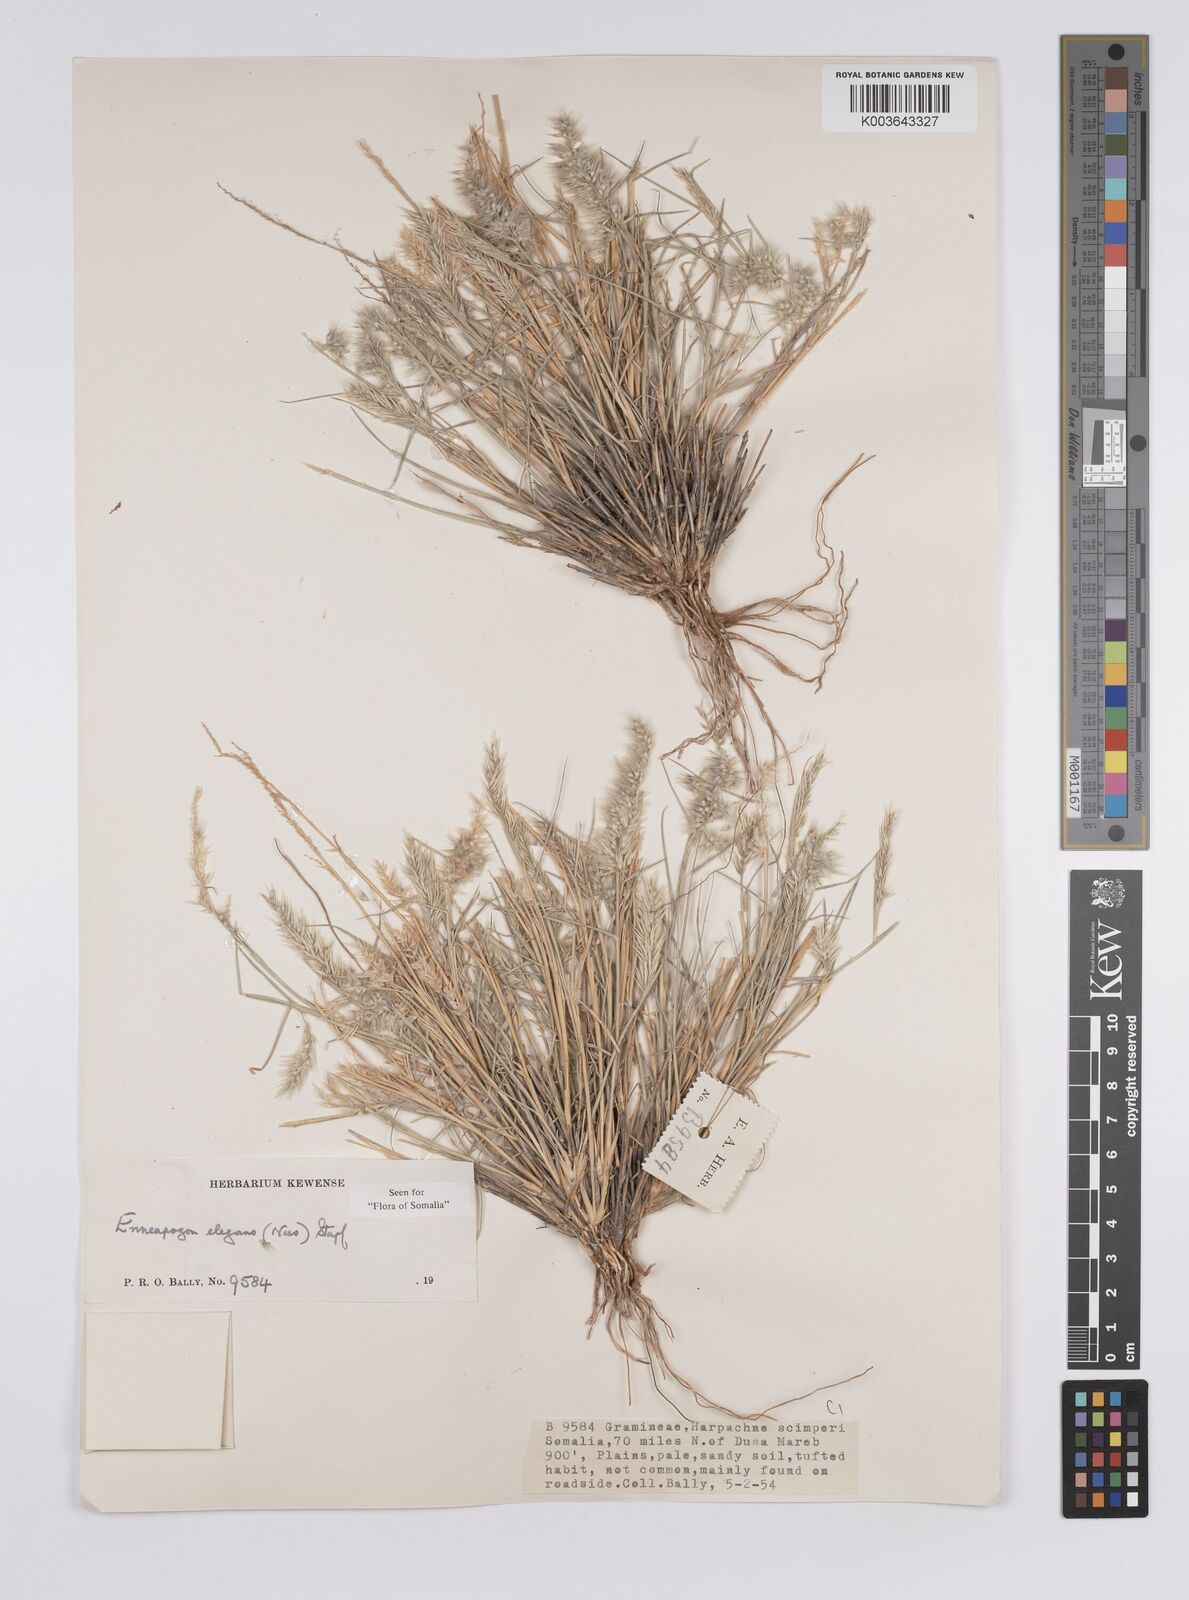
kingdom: Plantae
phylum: Tracheophyta
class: Liliopsida
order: Poales
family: Poaceae
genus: Enneapogon
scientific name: Enneapogon persicus
